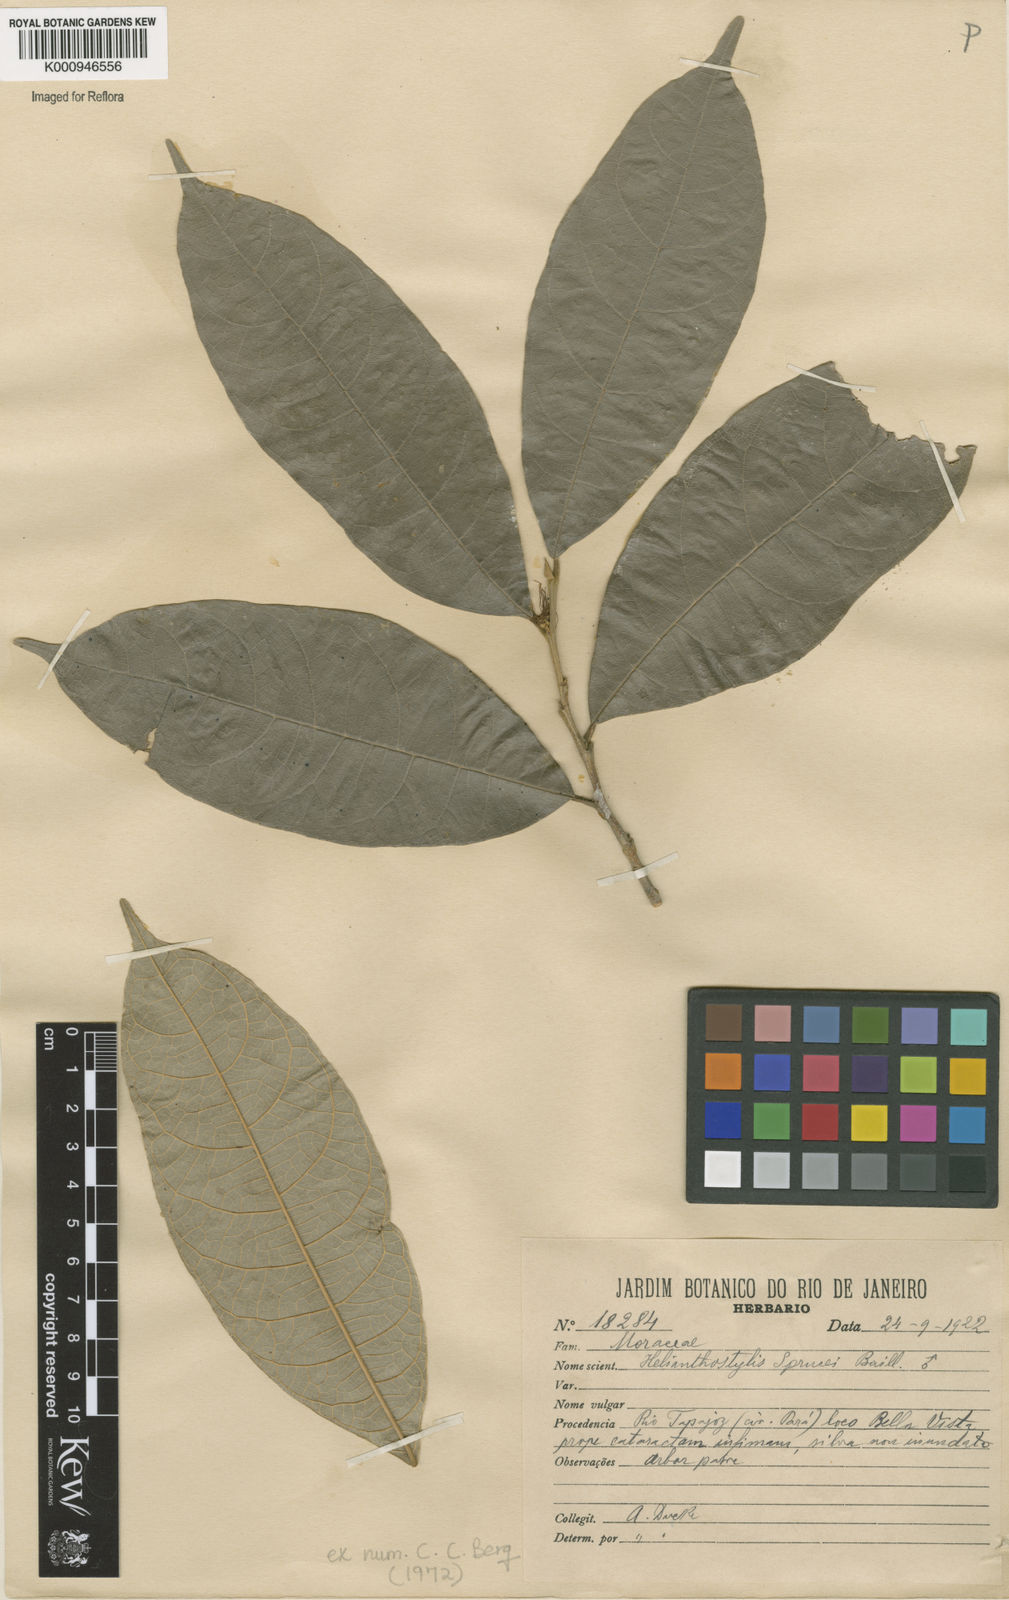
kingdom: Plantae
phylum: Tracheophyta
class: Magnoliopsida
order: Rosales
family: Moraceae
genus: Brosimum
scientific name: Brosimum sprucei
